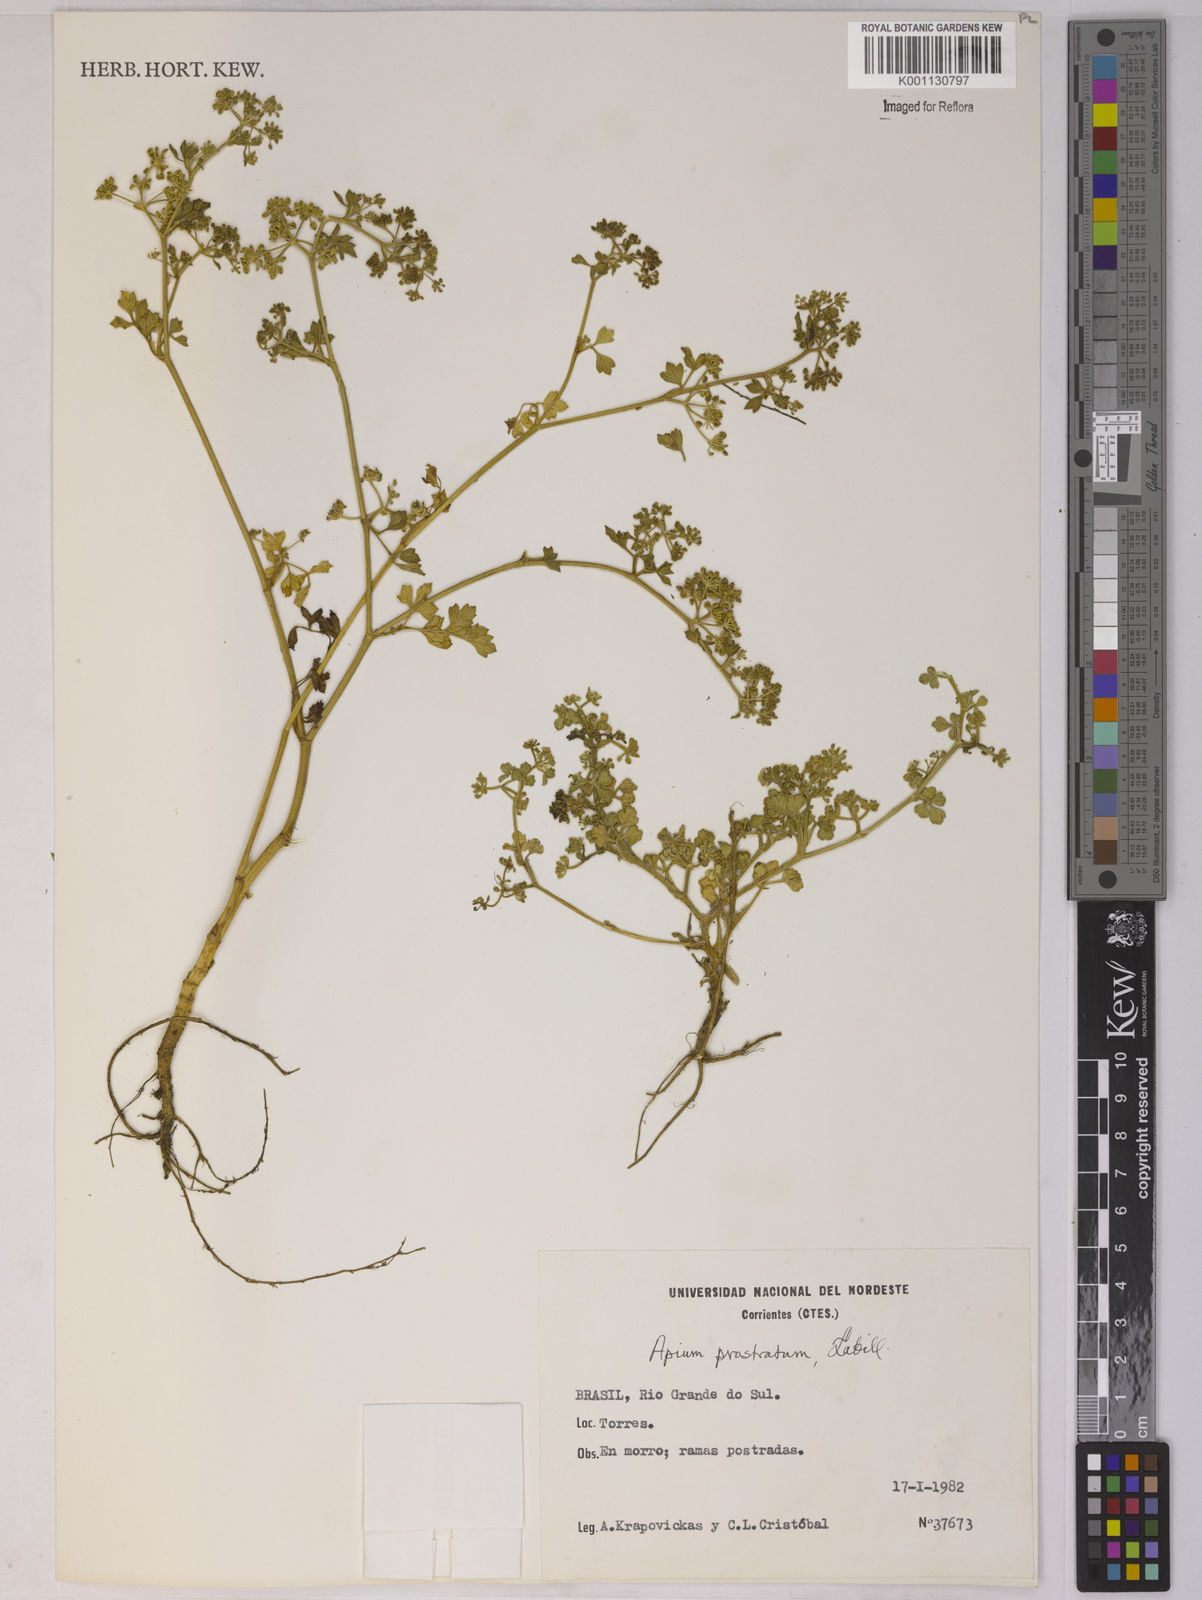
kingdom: Plantae
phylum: Tracheophyta
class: Magnoliopsida
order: Apiales
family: Apiaceae
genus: Apium
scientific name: Apium
